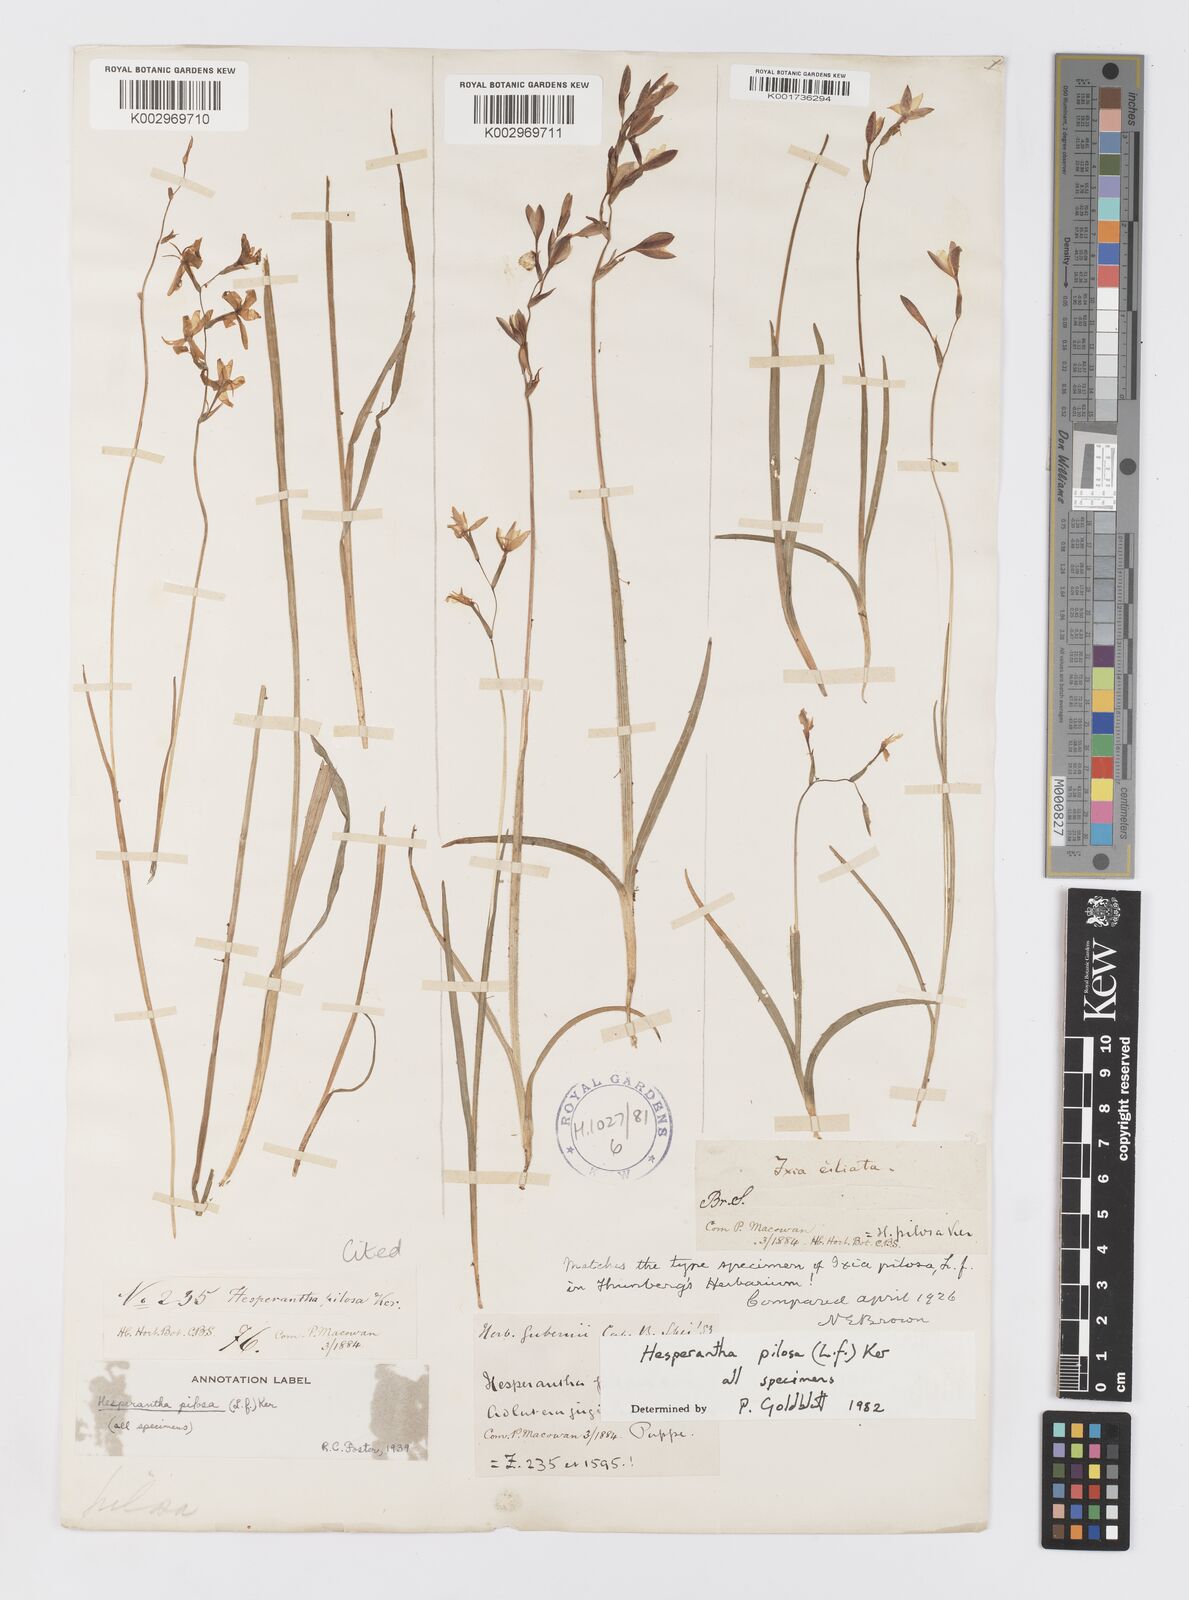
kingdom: Plantae
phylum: Tracheophyta
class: Liliopsida
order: Asparagales
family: Iridaceae
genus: Hesperantha
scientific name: Hesperantha pilosa
